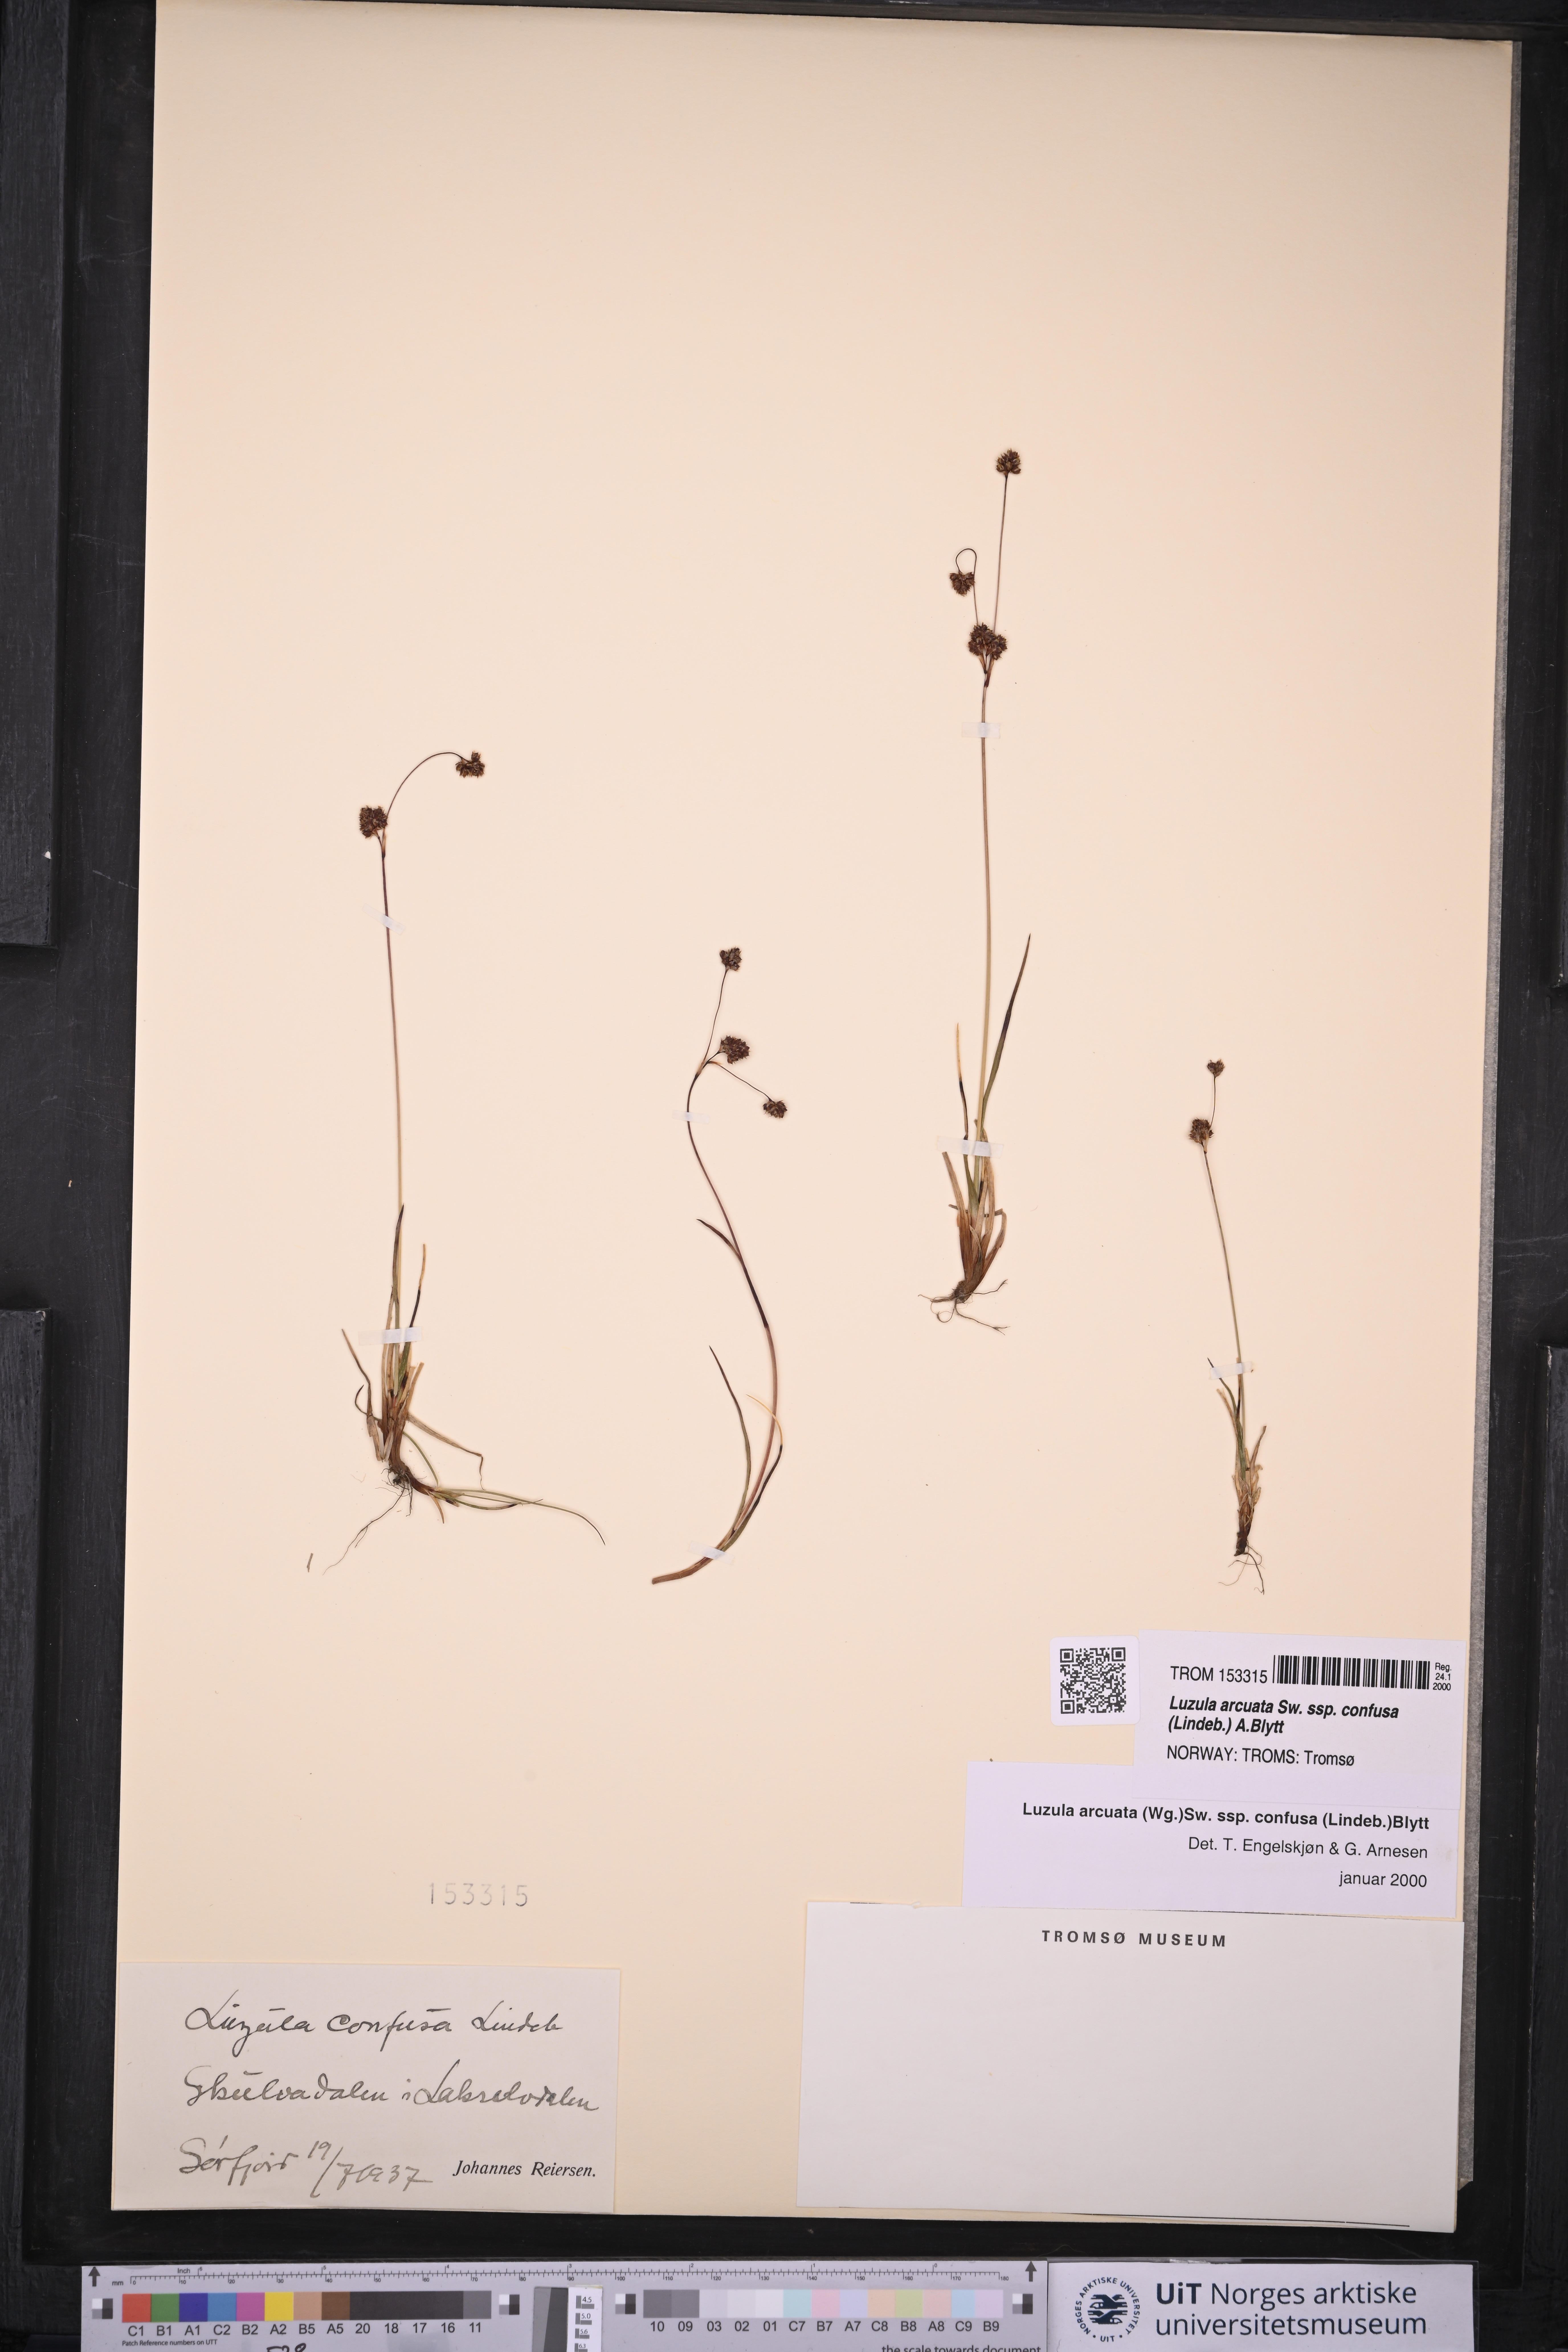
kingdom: Plantae
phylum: Tracheophyta
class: Liliopsida
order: Poales
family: Juncaceae
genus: Luzula
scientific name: Luzula confusa
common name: Northern wood rush
